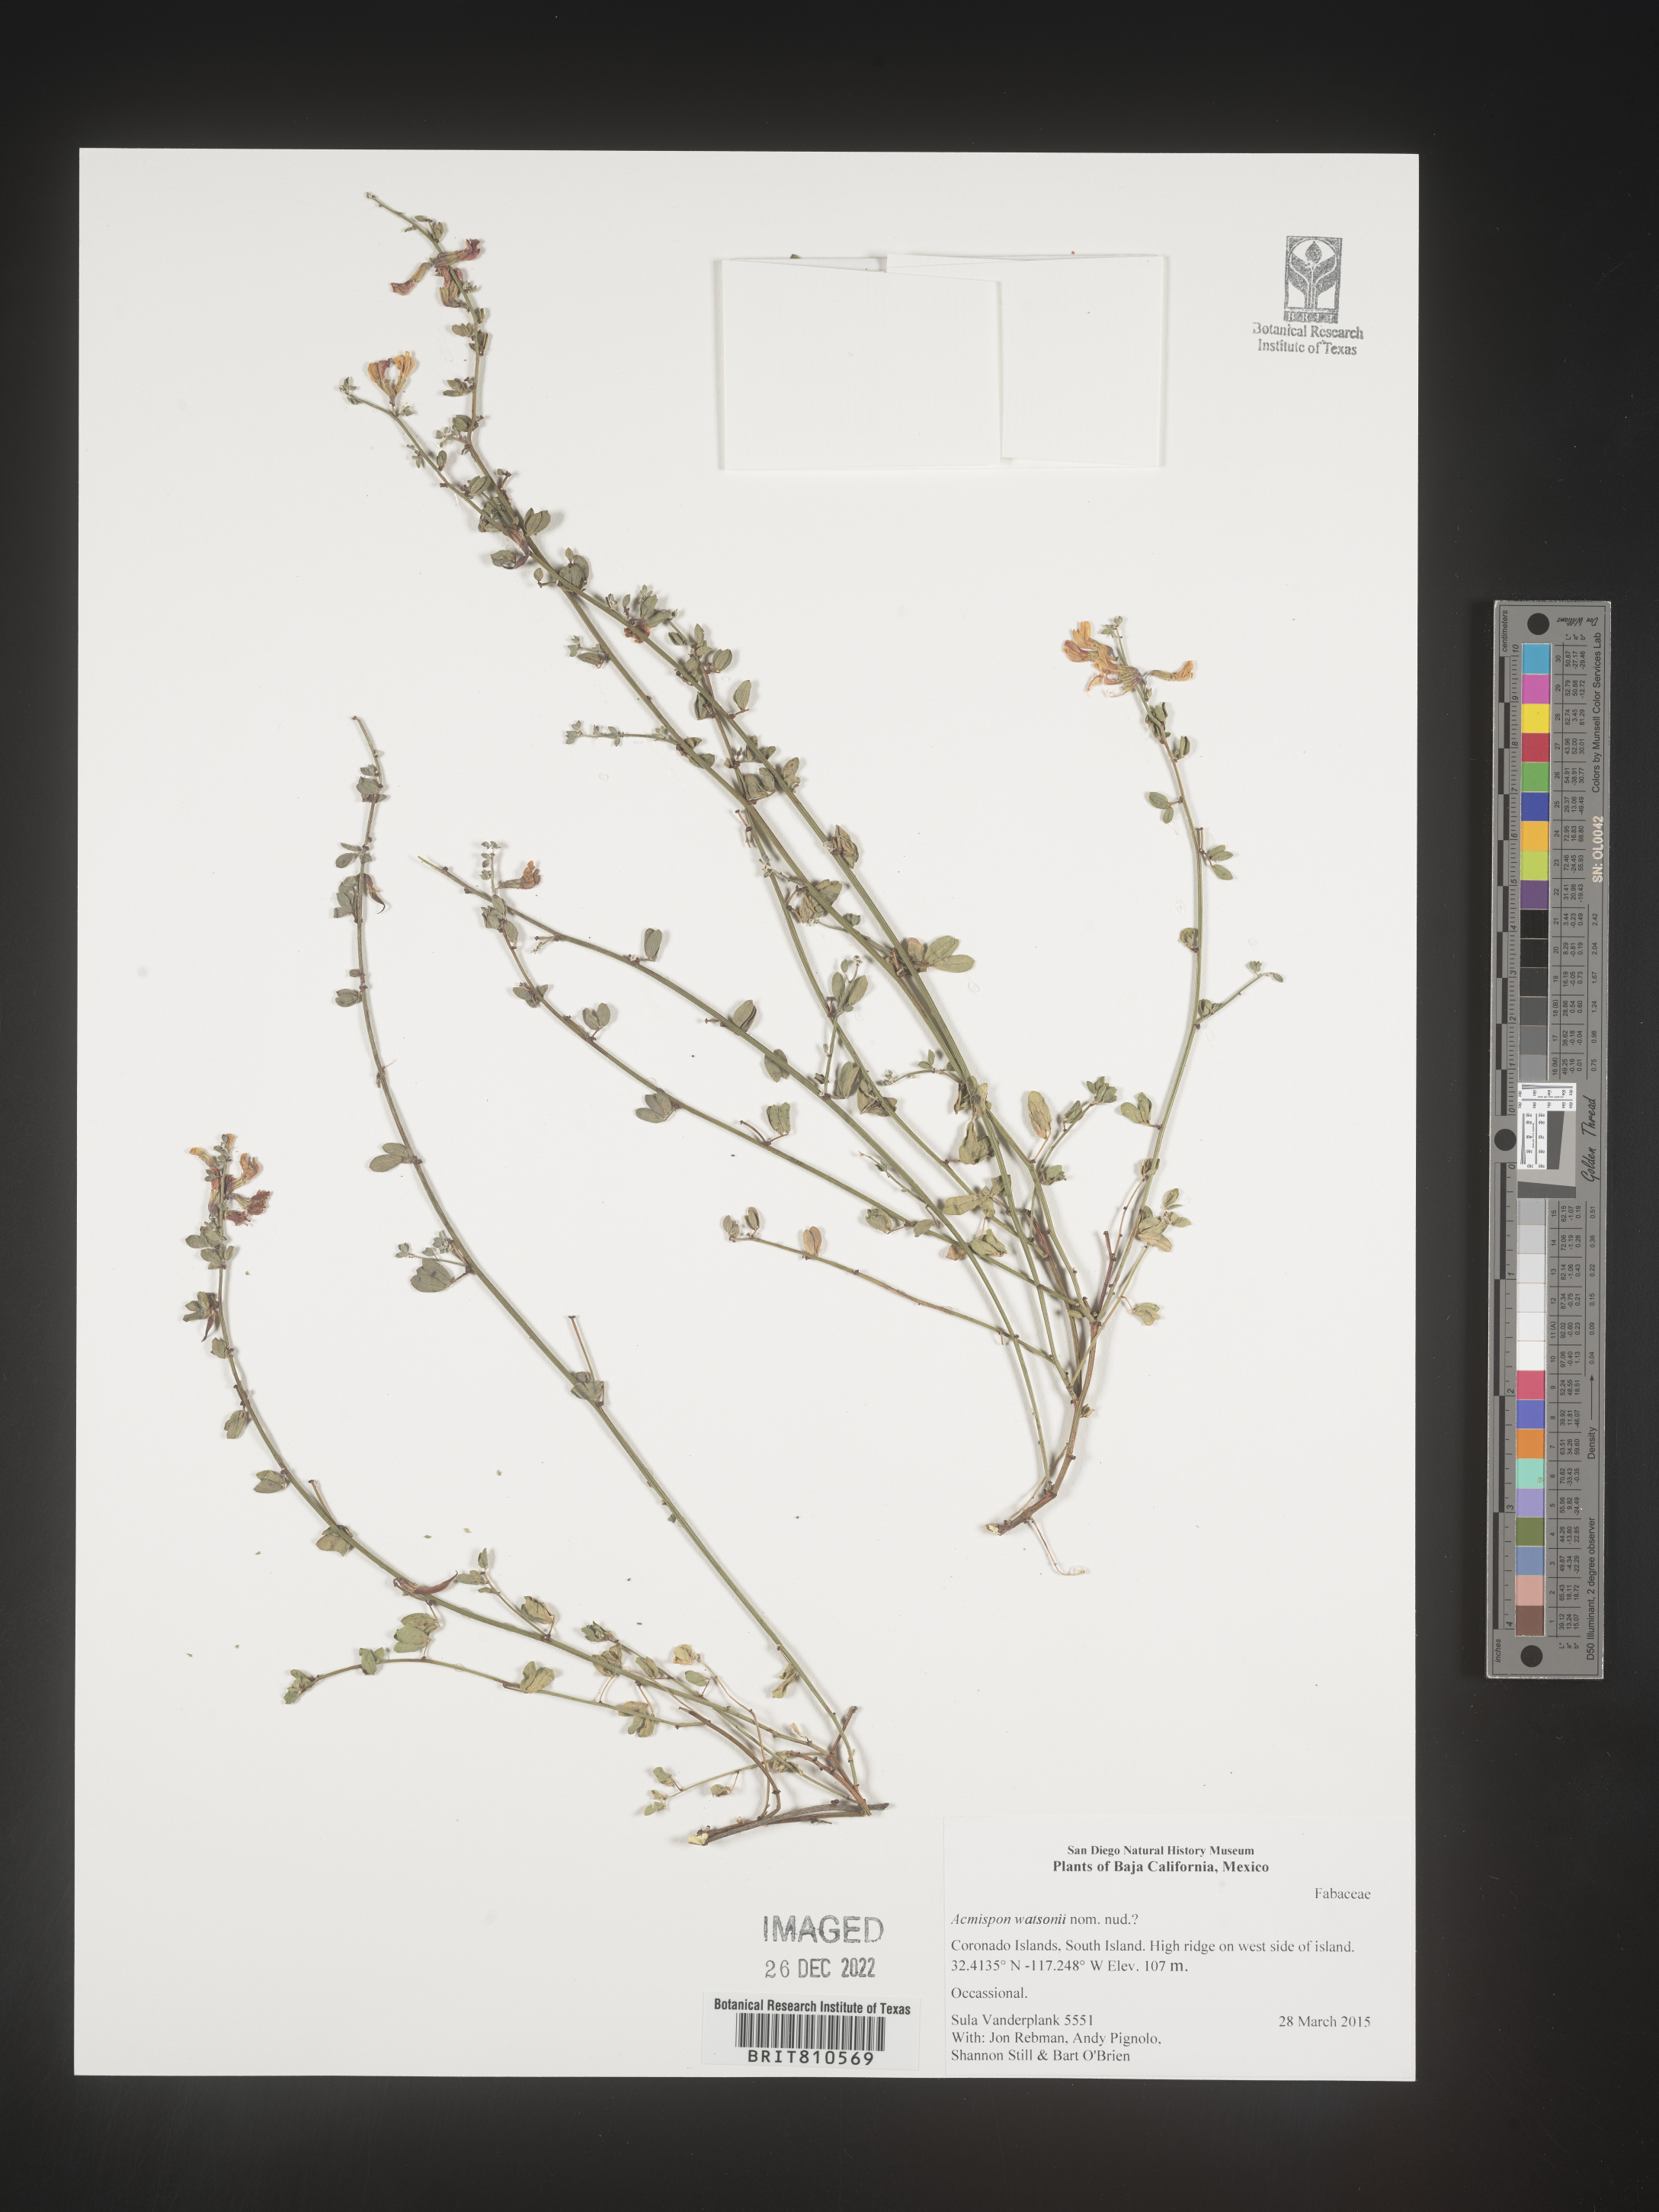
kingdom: Plantae
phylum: Tracheophyta
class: Magnoliopsida
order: Fabales
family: Fabaceae
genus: Acmispon
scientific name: Acmispon
